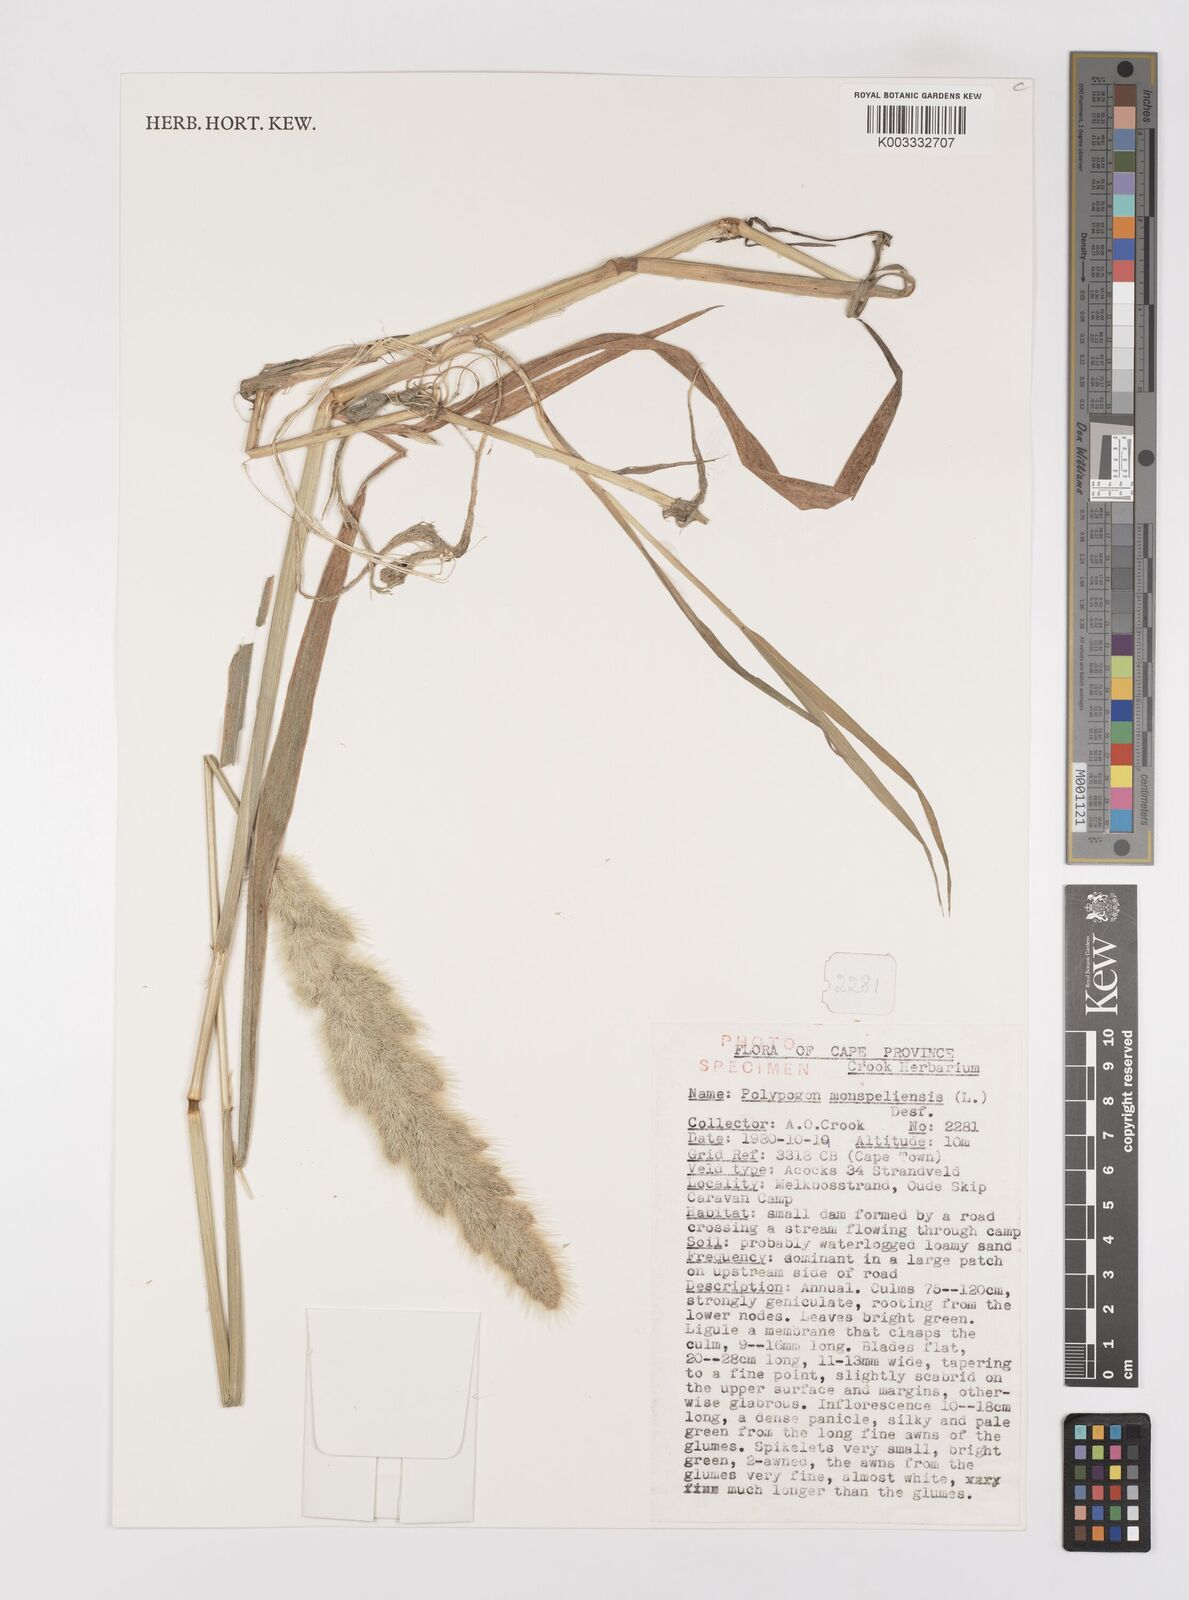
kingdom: Plantae
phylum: Tracheophyta
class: Liliopsida
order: Poales
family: Poaceae
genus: Polypogon
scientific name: Polypogon monspeliensis
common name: Annual rabbitsfoot grass
